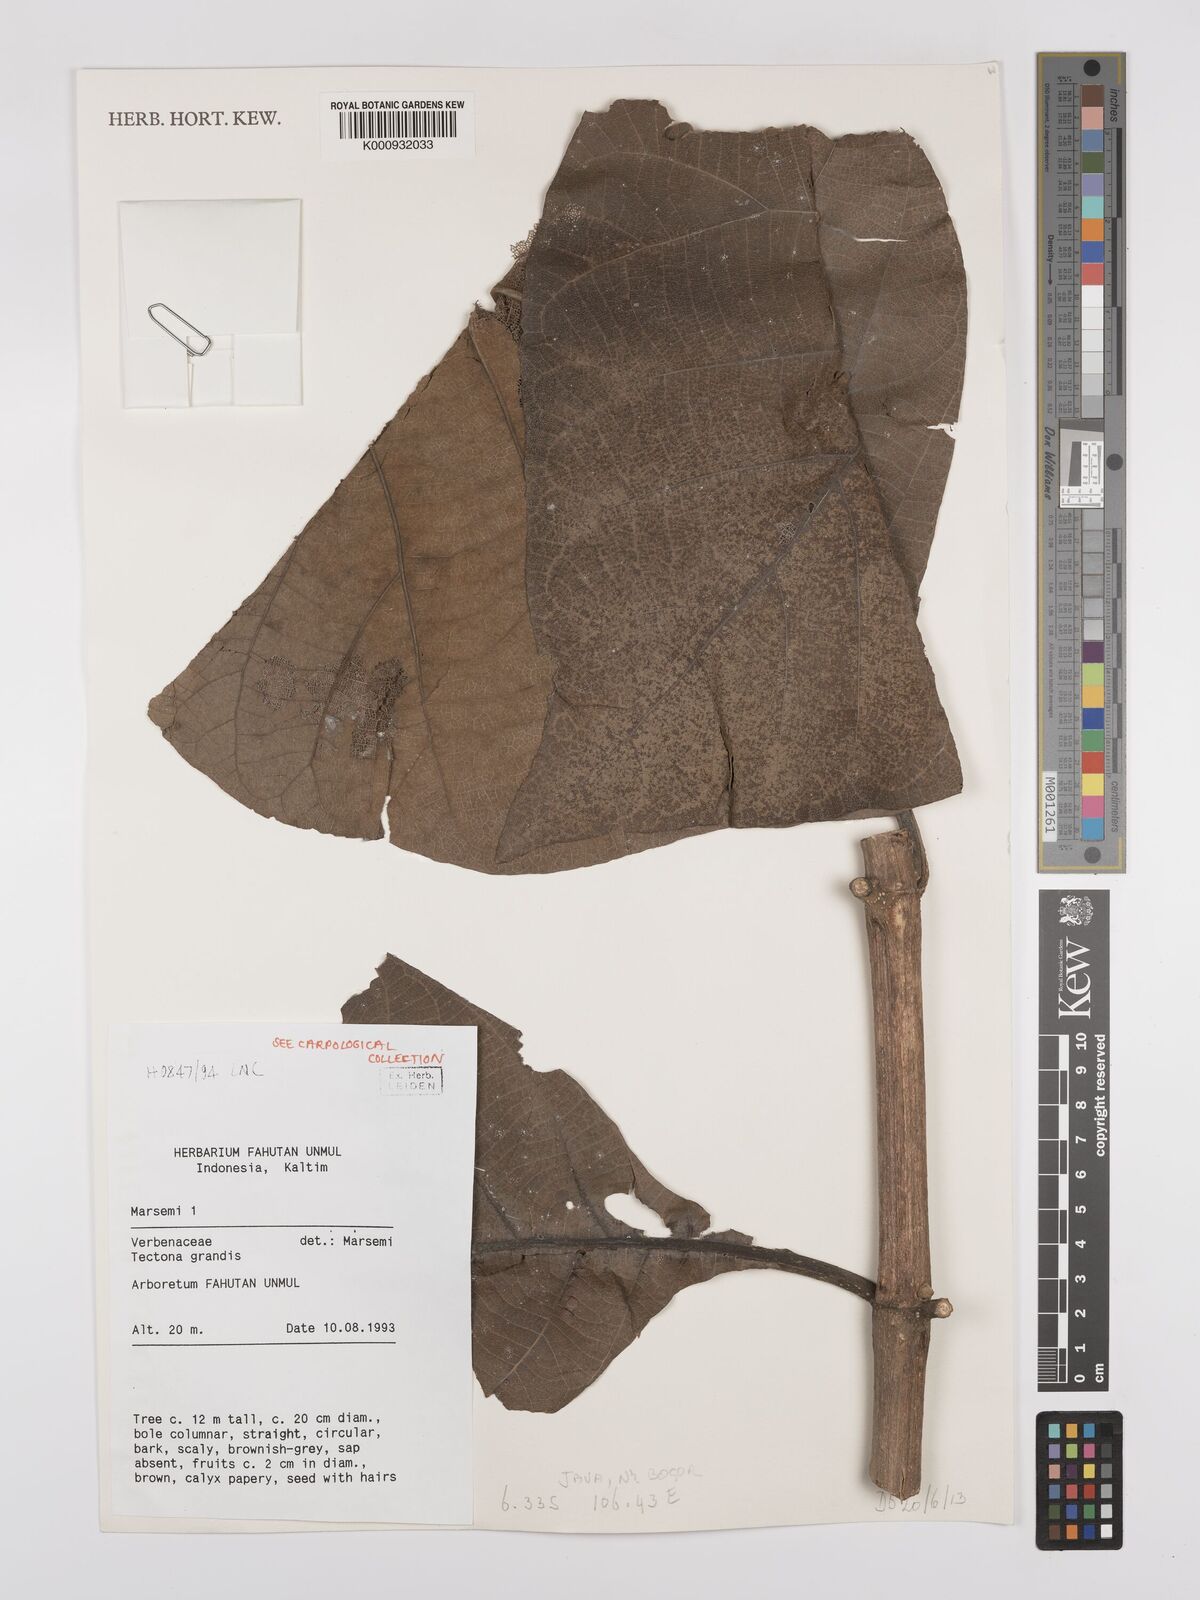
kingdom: Plantae
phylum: Tracheophyta
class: Magnoliopsida
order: Lamiales
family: Lamiaceae
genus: Tectona
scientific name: Tectona grandis
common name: Teak
